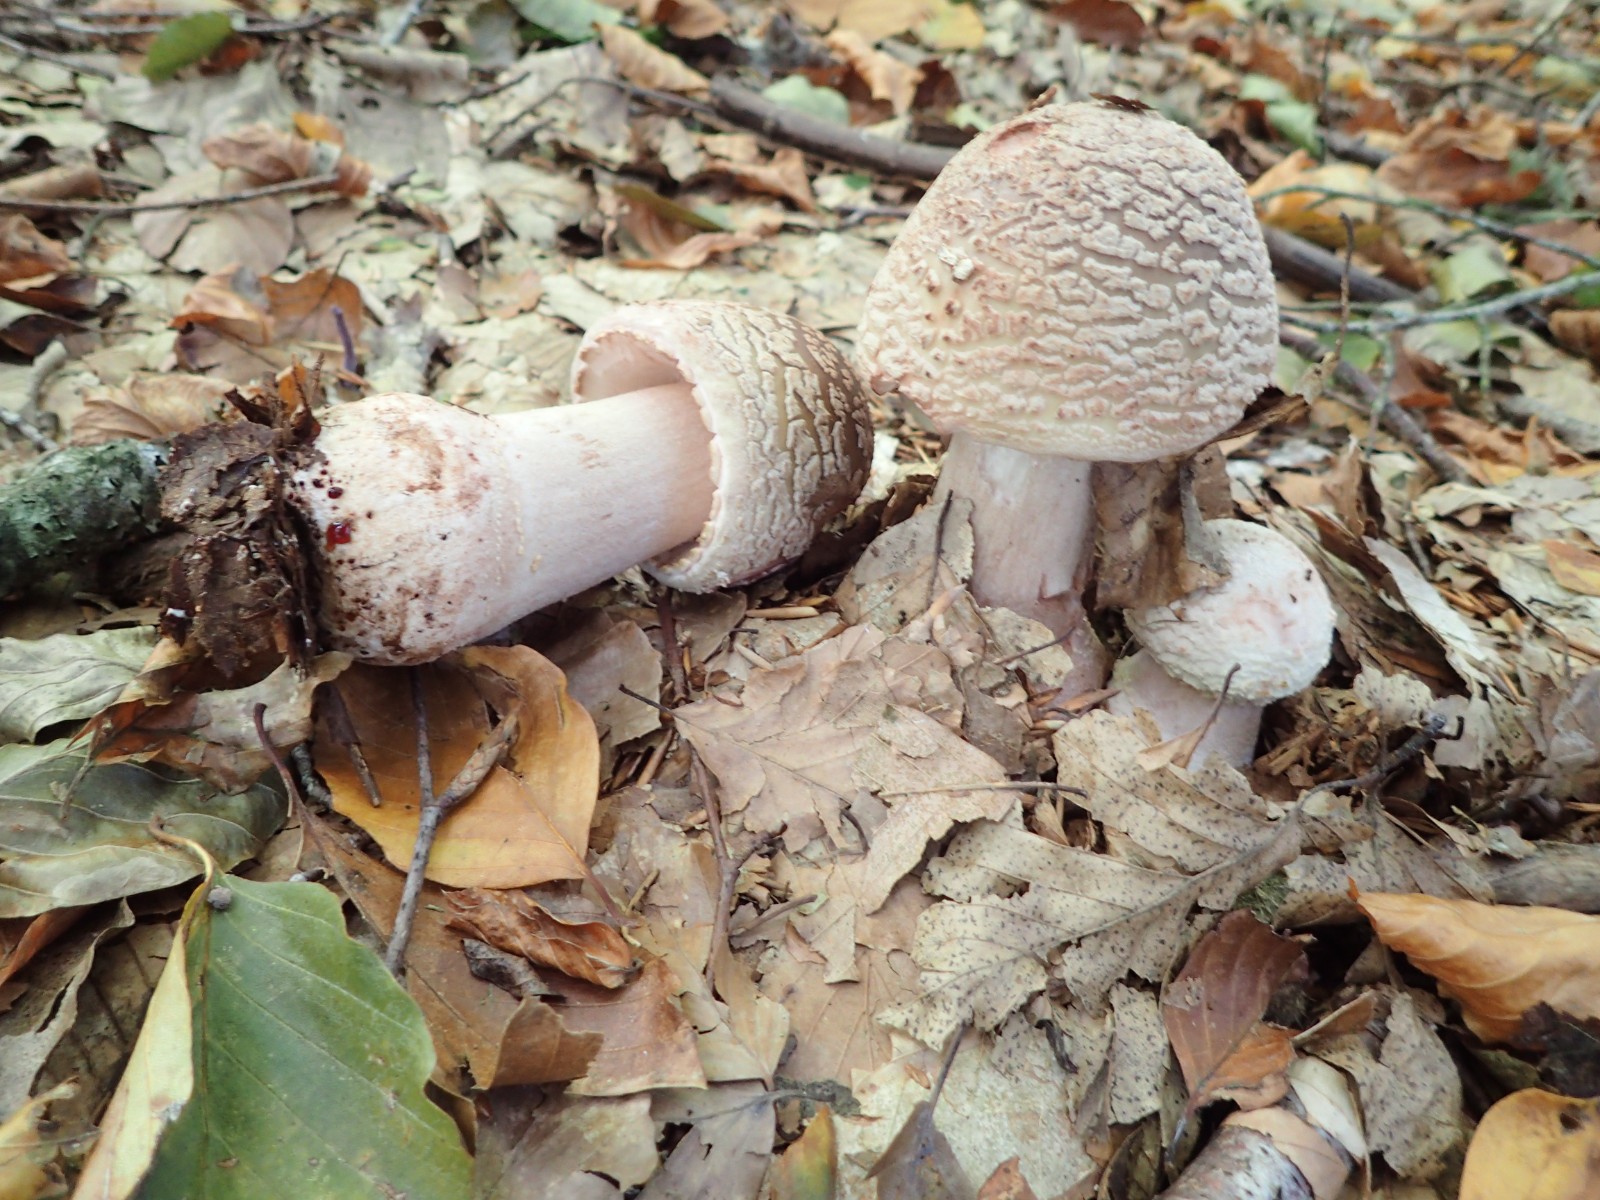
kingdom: Fungi
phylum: Basidiomycota
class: Agaricomycetes
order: Agaricales
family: Amanitaceae
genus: Amanita
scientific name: Amanita rubescens
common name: rødmende fluesvamp
